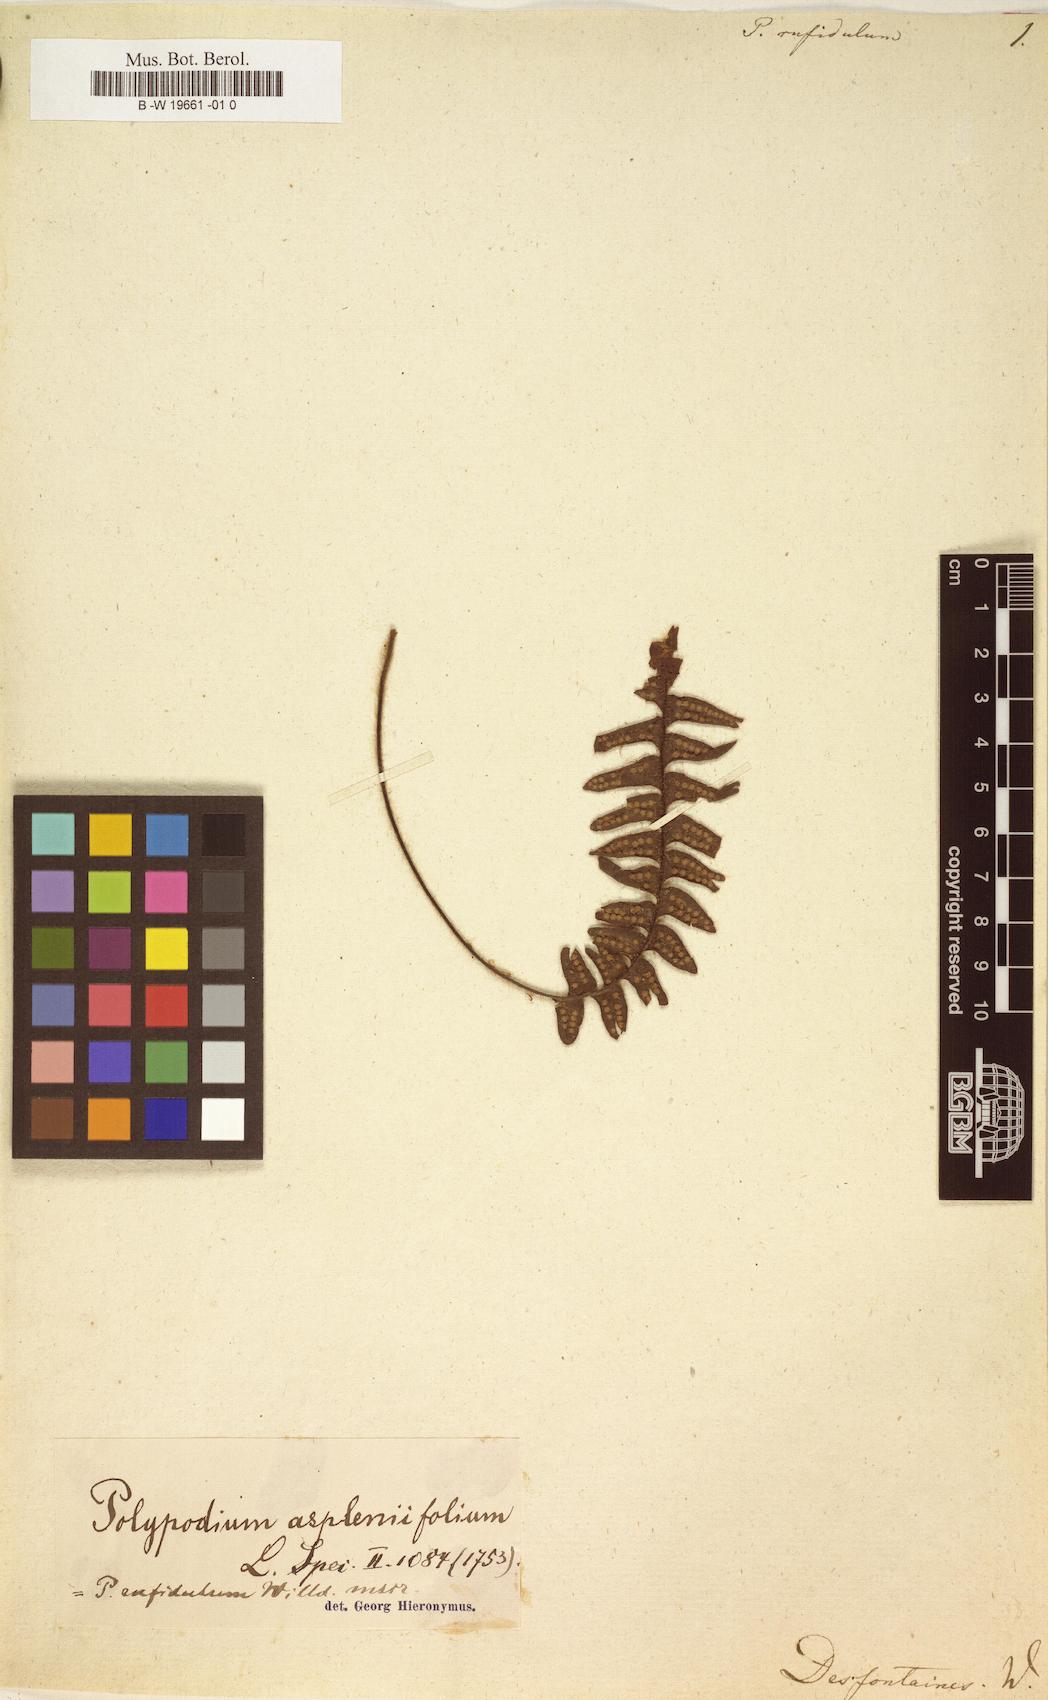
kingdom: Plantae
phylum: Tracheophyta
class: Polypodiopsida
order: Polypodiales
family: Polypodiaceae
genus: Dasygrammitis
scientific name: Dasygrammitis mollicoma
